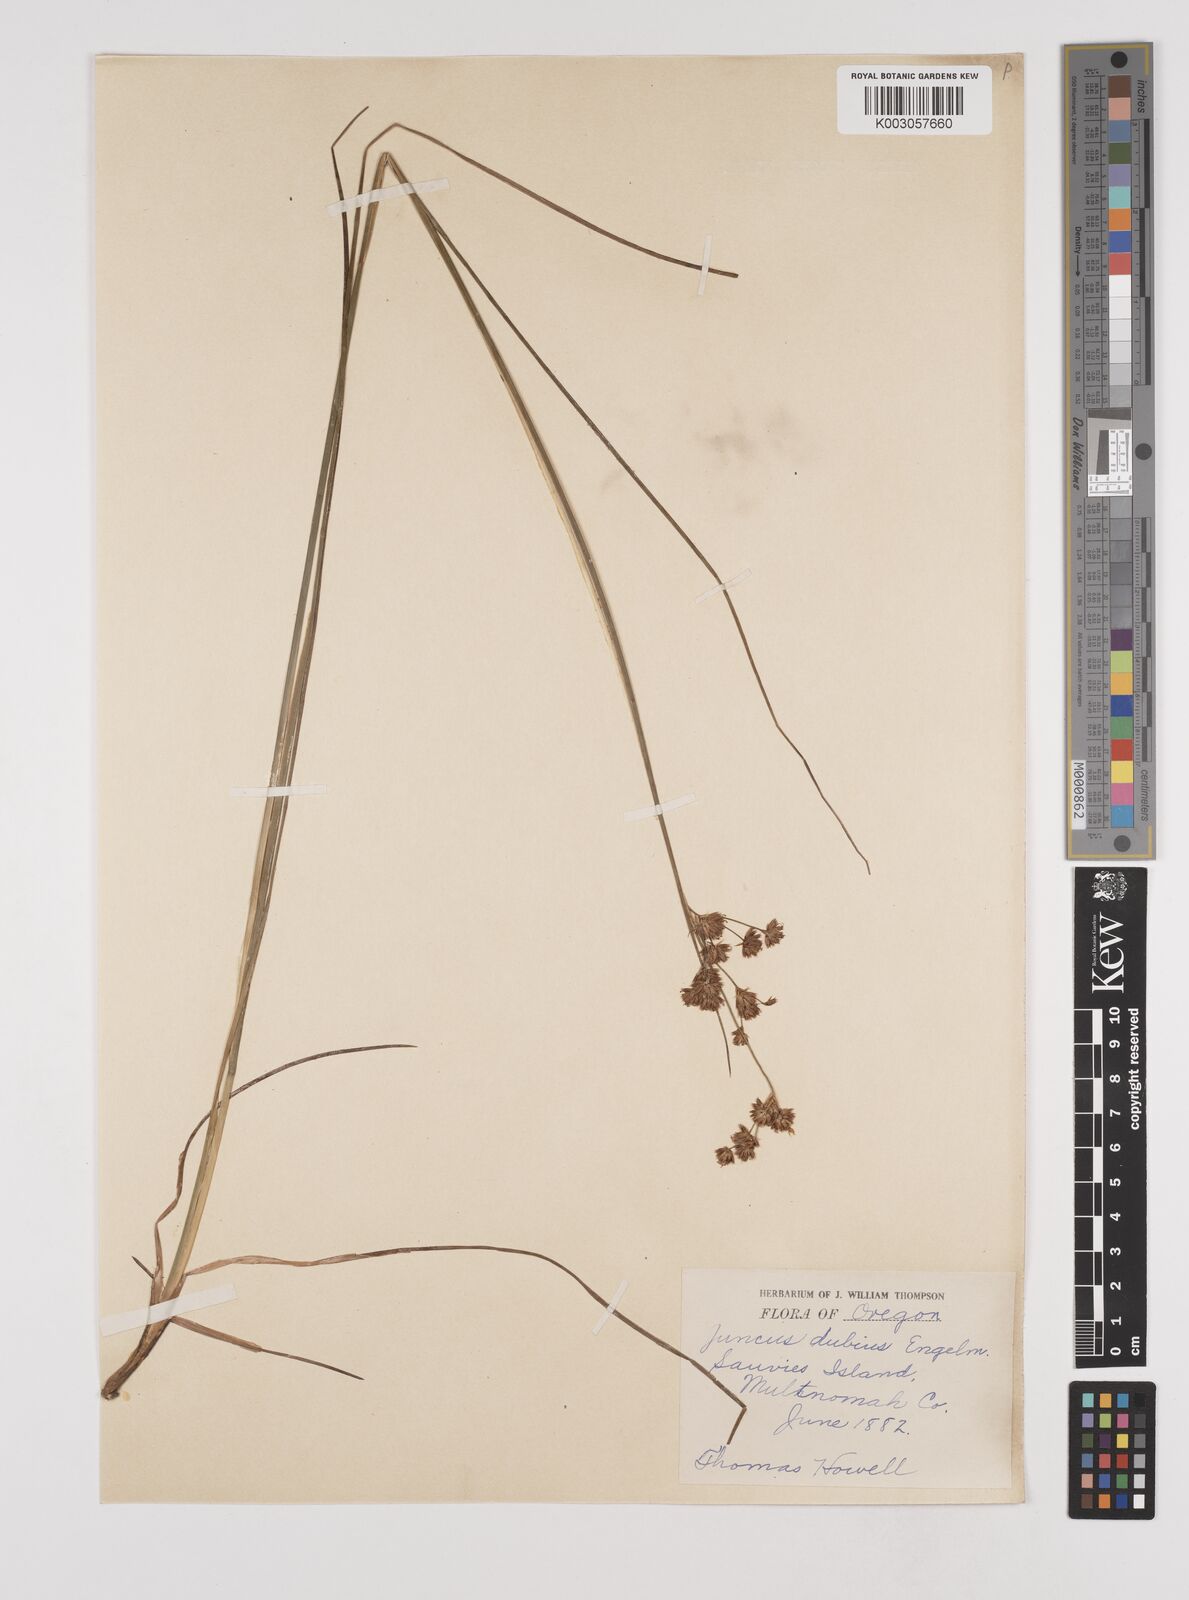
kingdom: Plantae
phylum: Tracheophyta
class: Liliopsida
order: Poales
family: Juncaceae
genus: Juncus
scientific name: Juncus dubius
